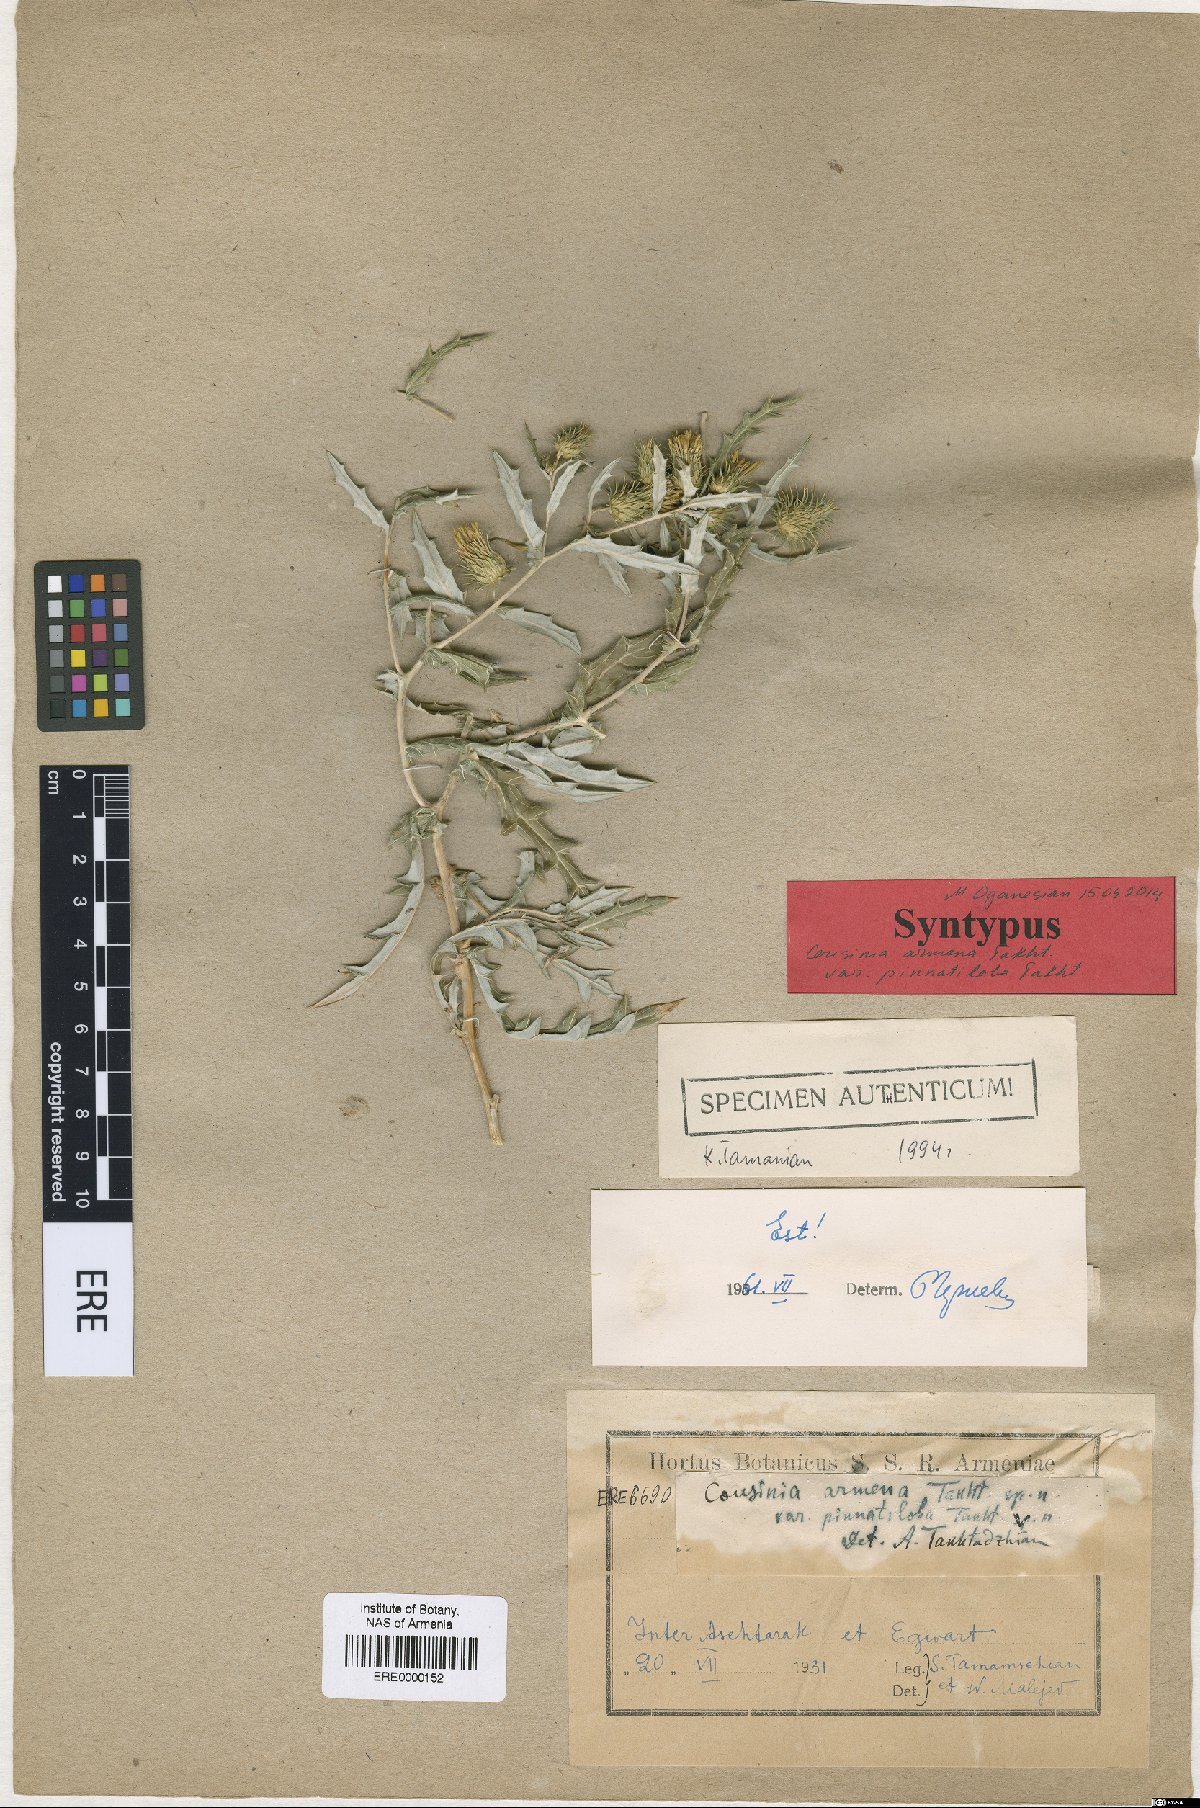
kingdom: Plantae
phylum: Tracheophyta
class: Magnoliopsida
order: Asterales
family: Asteraceae
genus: Cousinia
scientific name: Cousinia armena
